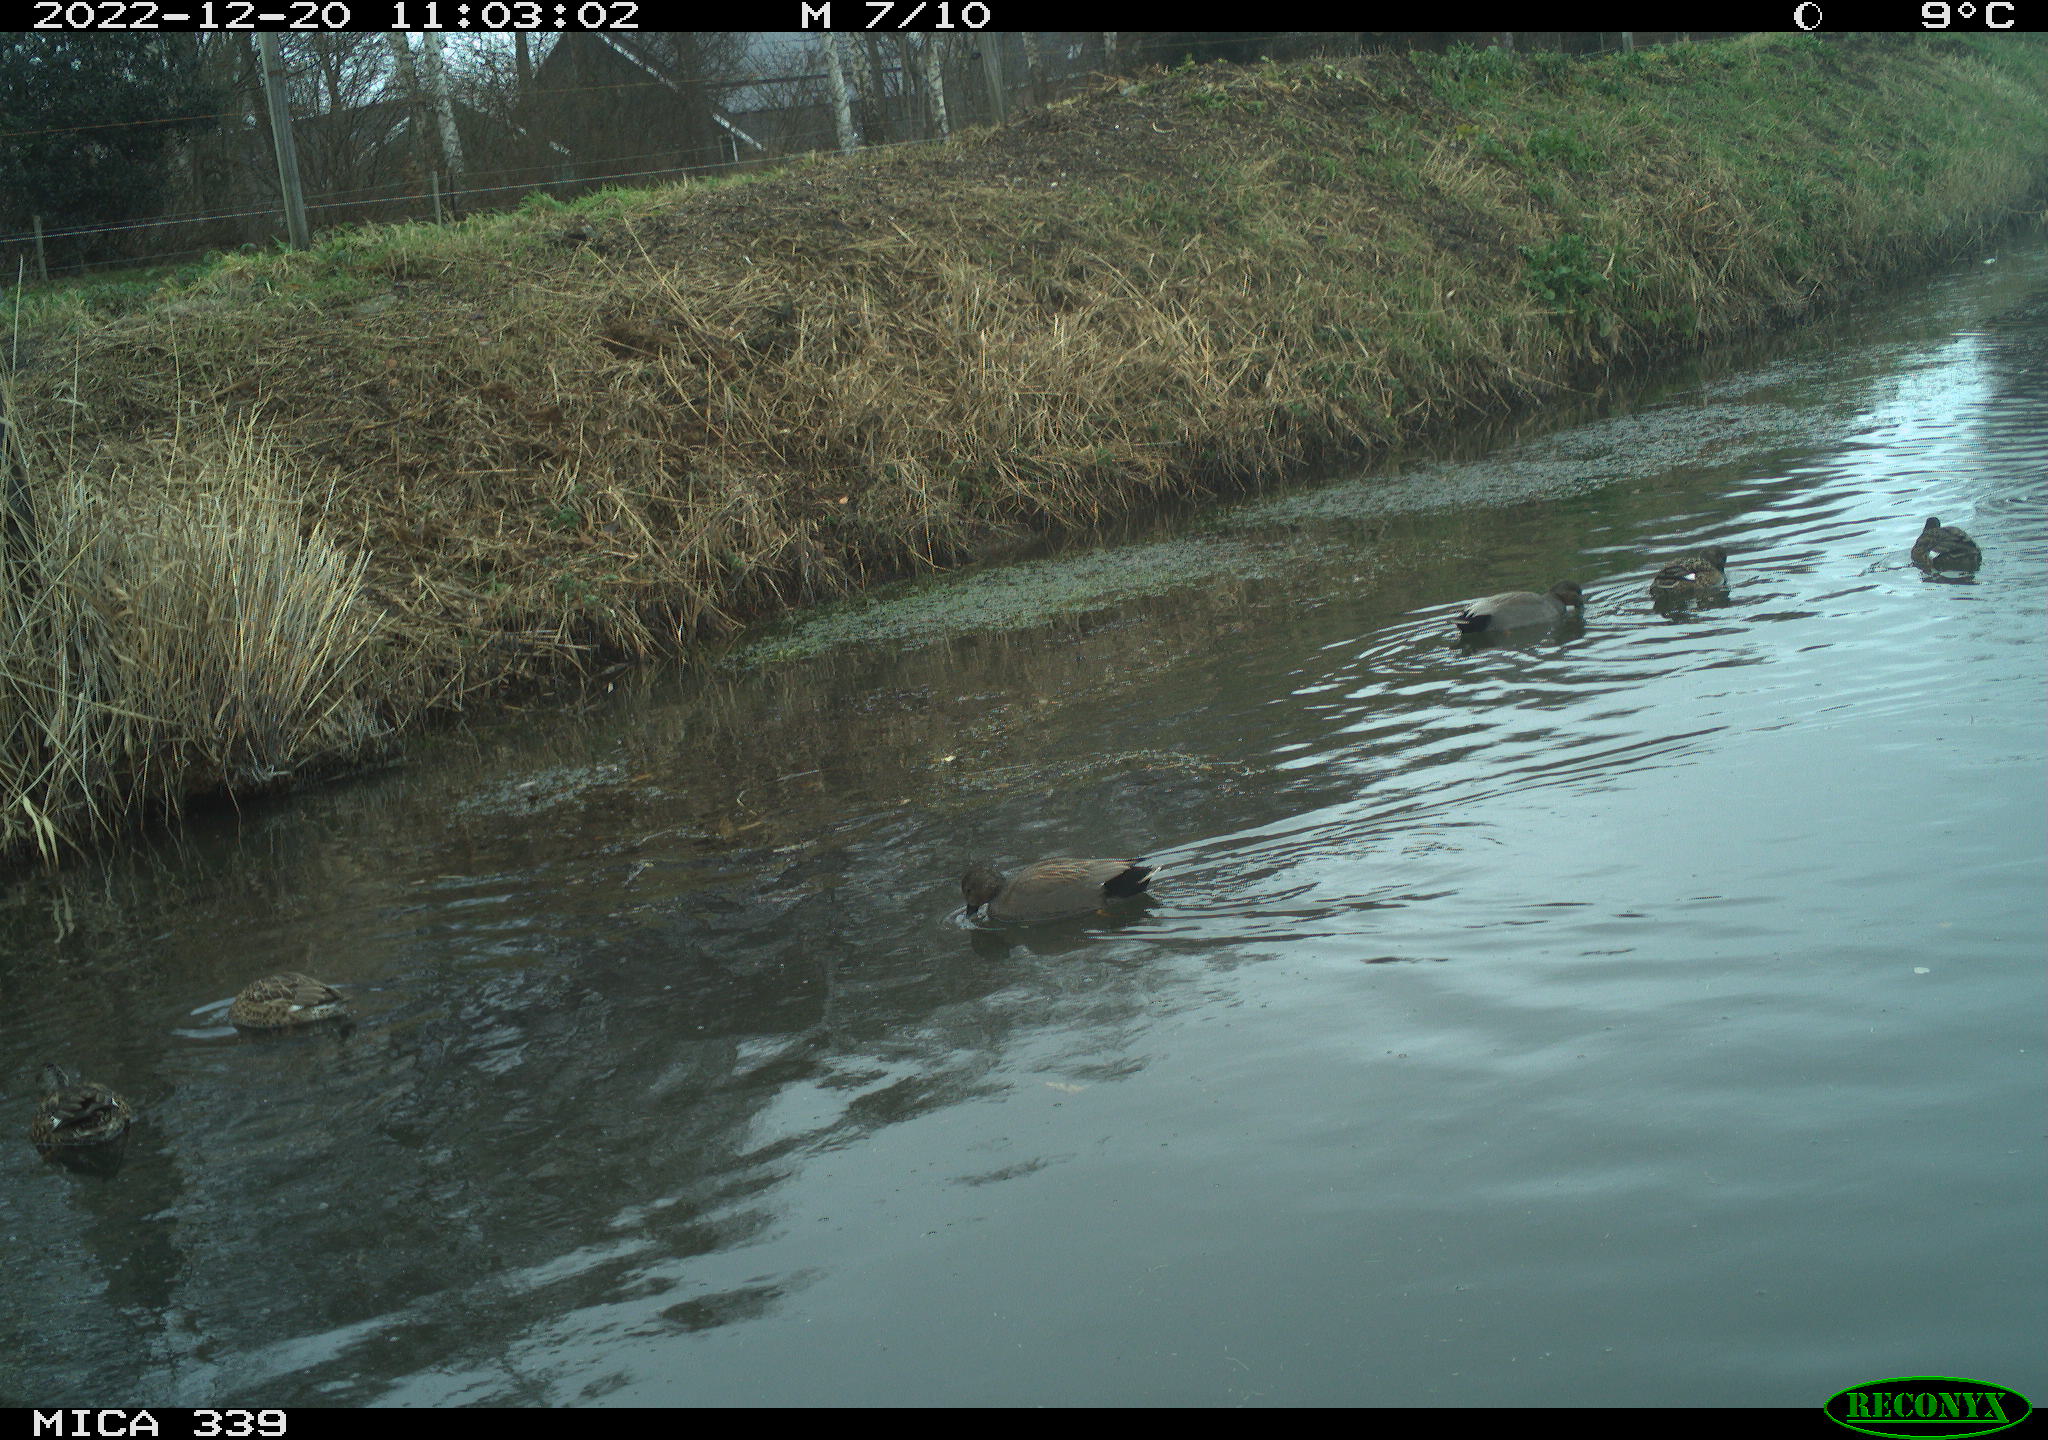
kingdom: Animalia
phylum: Chordata
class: Aves
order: Anseriformes
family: Anatidae
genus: Anas
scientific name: Anas
